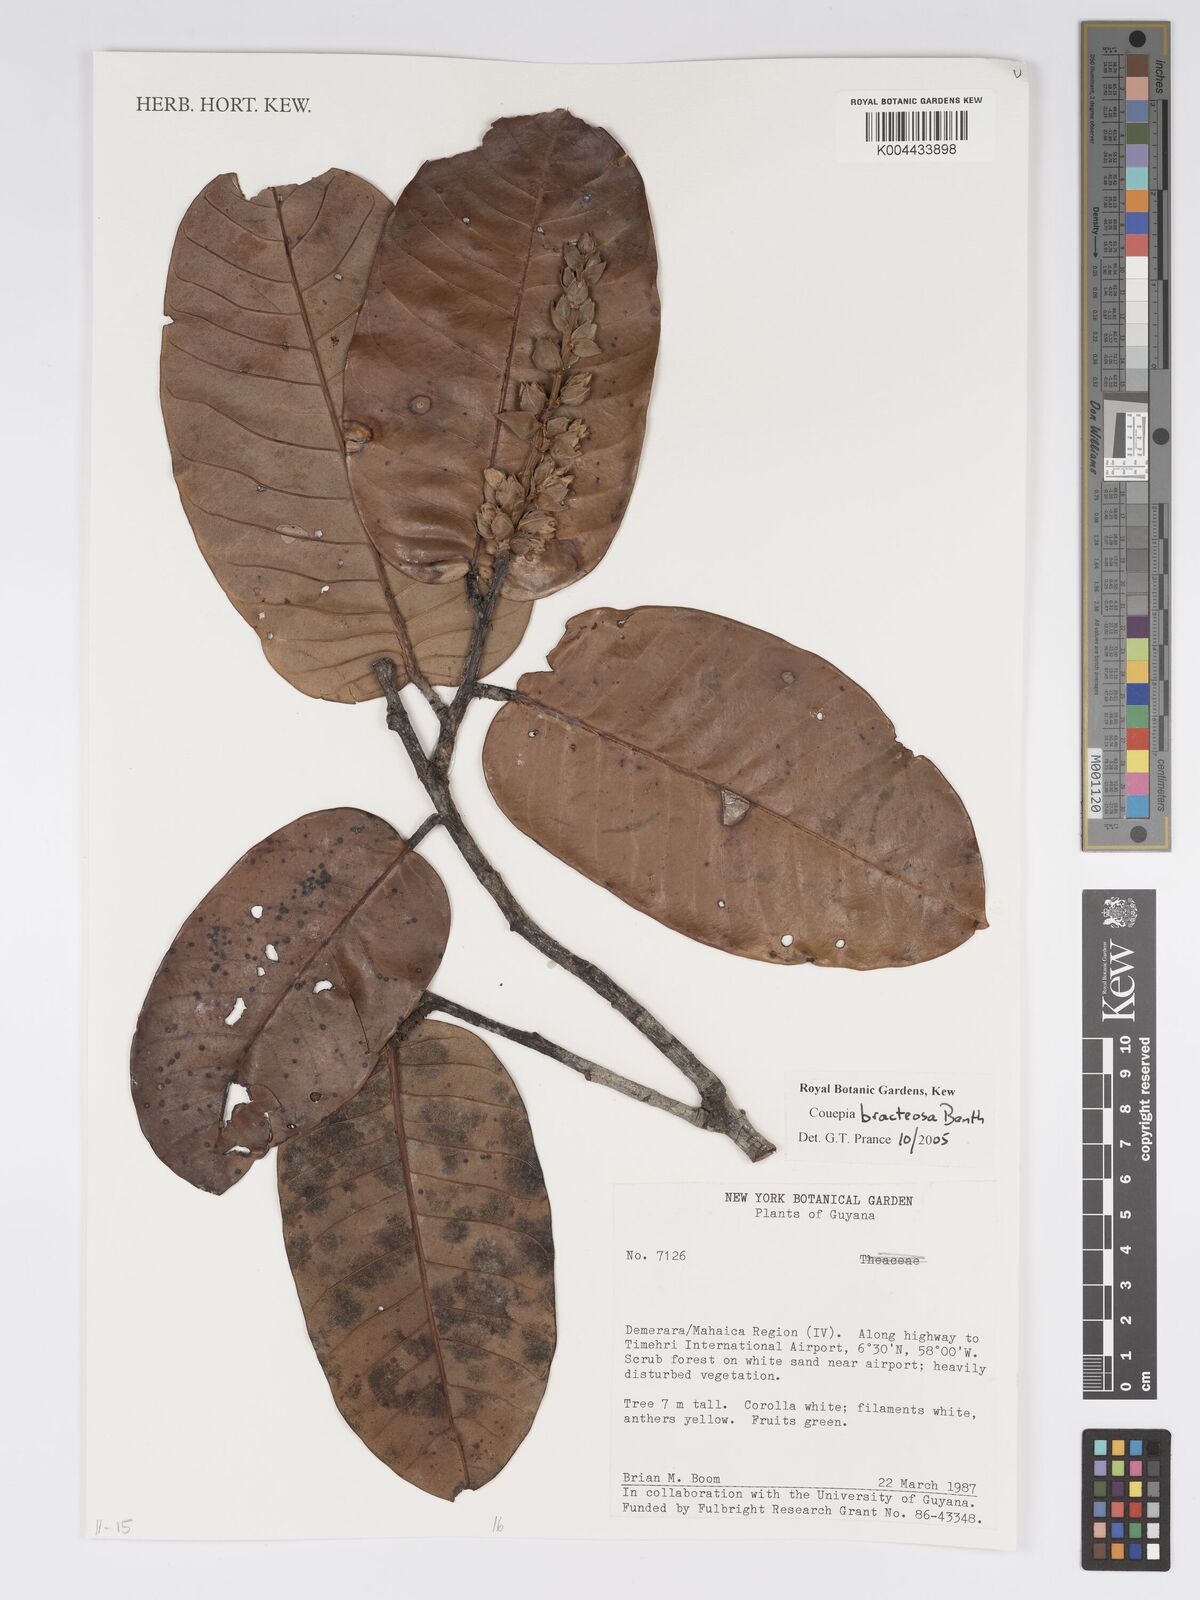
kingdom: Plantae
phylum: Tracheophyta
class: Magnoliopsida
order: Malpighiales
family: Chrysobalanaceae
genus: Couepia
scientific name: Couepia bracteosa
